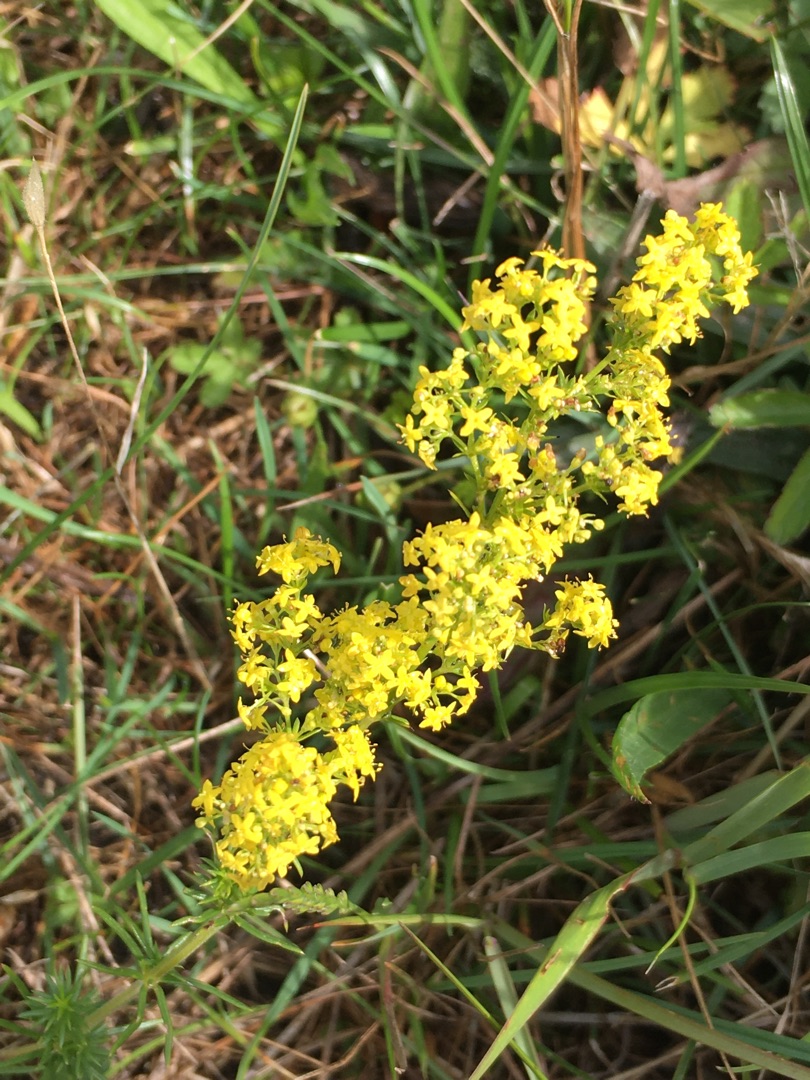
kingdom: Plantae
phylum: Tracheophyta
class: Magnoliopsida
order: Gentianales
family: Rubiaceae
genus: Galium
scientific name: Galium verum
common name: Gul snerre
